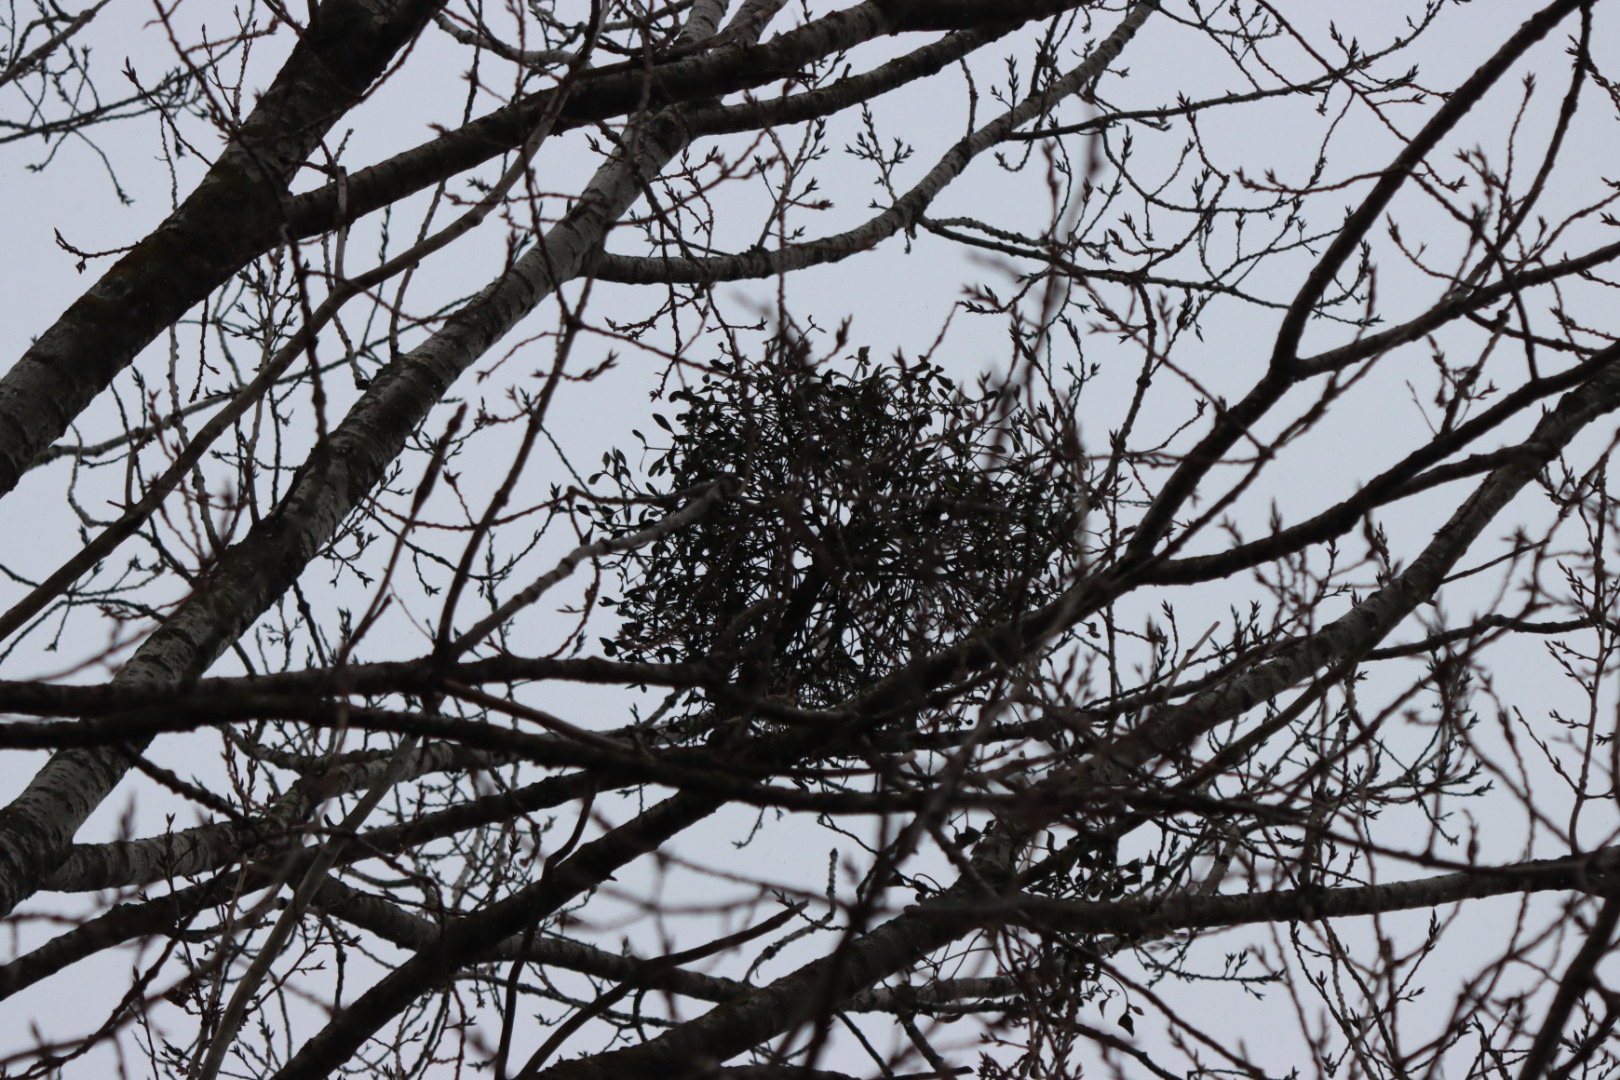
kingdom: Plantae
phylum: Tracheophyta
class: Magnoliopsida
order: Santalales
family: Viscaceae
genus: Viscum
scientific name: Viscum album
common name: Mistelten
